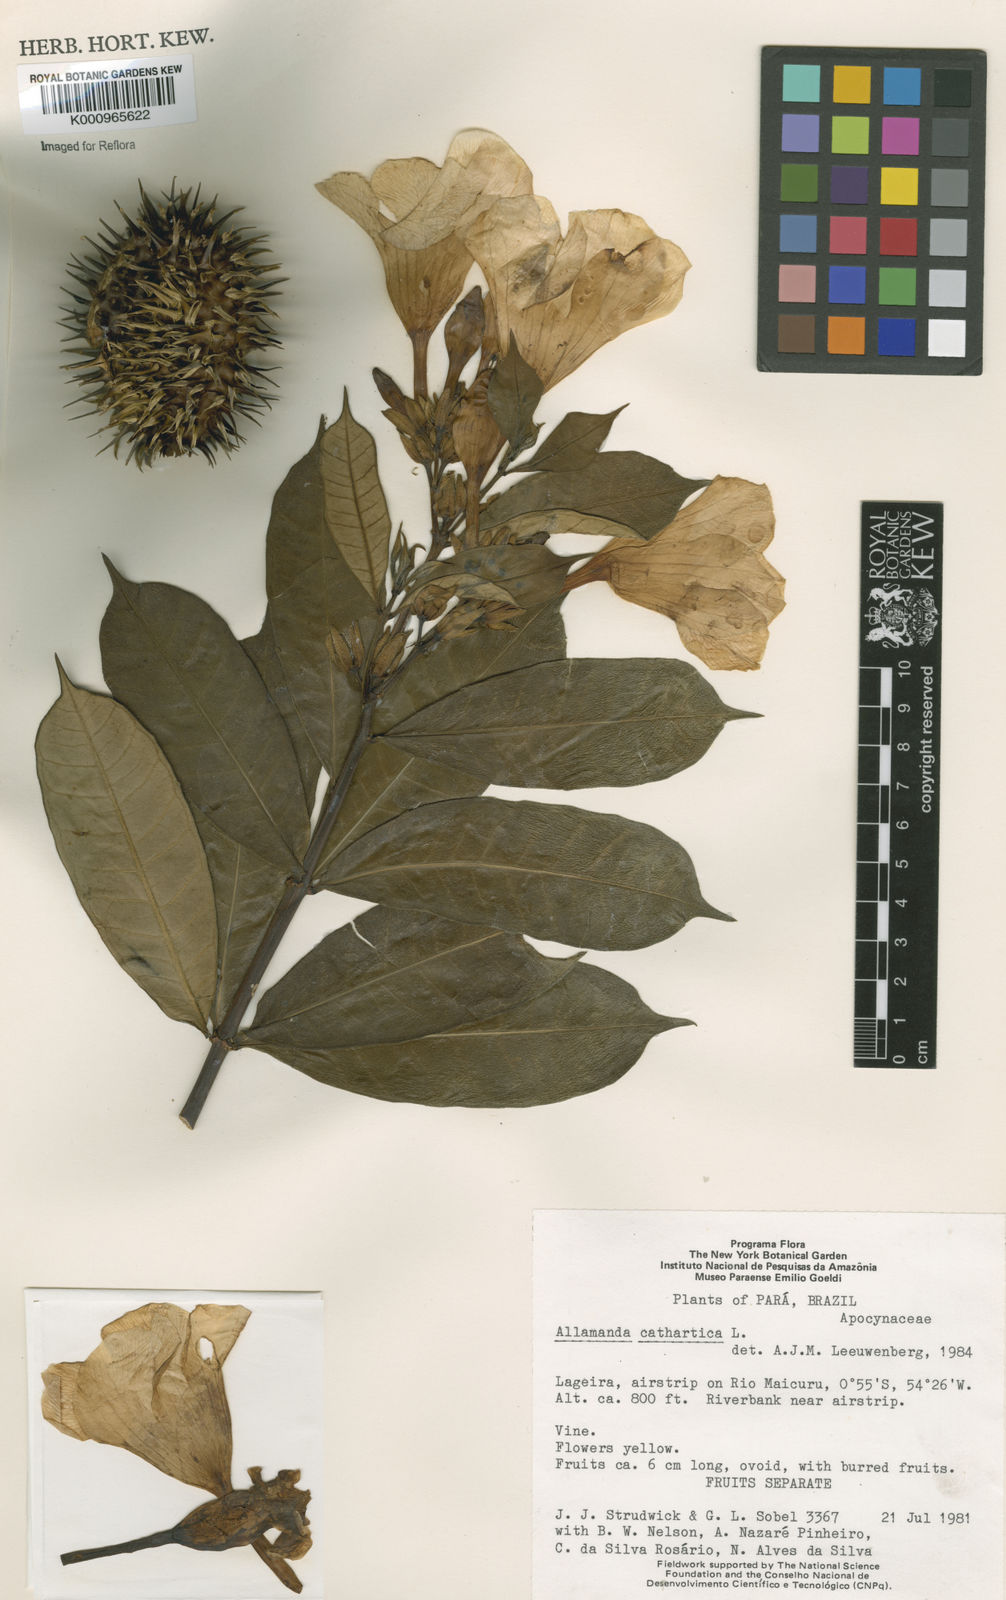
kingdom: Plantae
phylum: Tracheophyta
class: Magnoliopsida
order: Gentianales
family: Apocynaceae
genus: Allamanda
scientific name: Allamanda cathartica
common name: Golden trumpet
